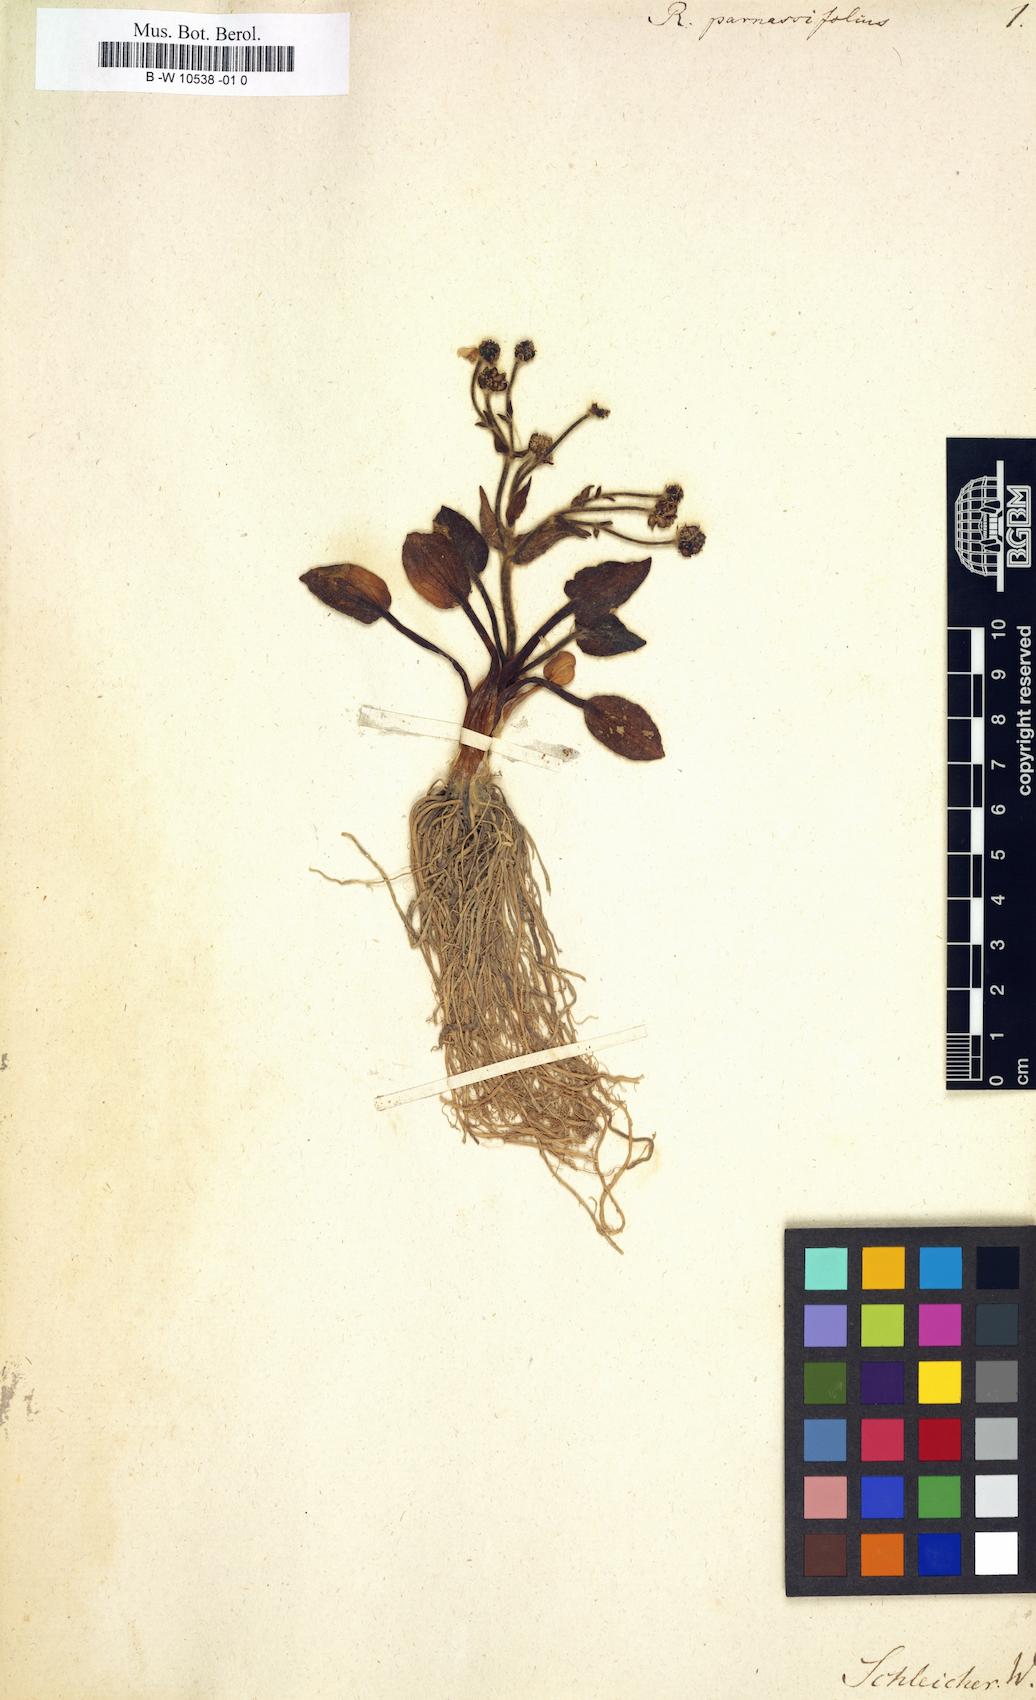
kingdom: Plantae
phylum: Tracheophyta
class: Magnoliopsida
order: Ranunculales
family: Ranunculaceae
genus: Ranunculus
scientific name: Ranunculus parnassiifolius
